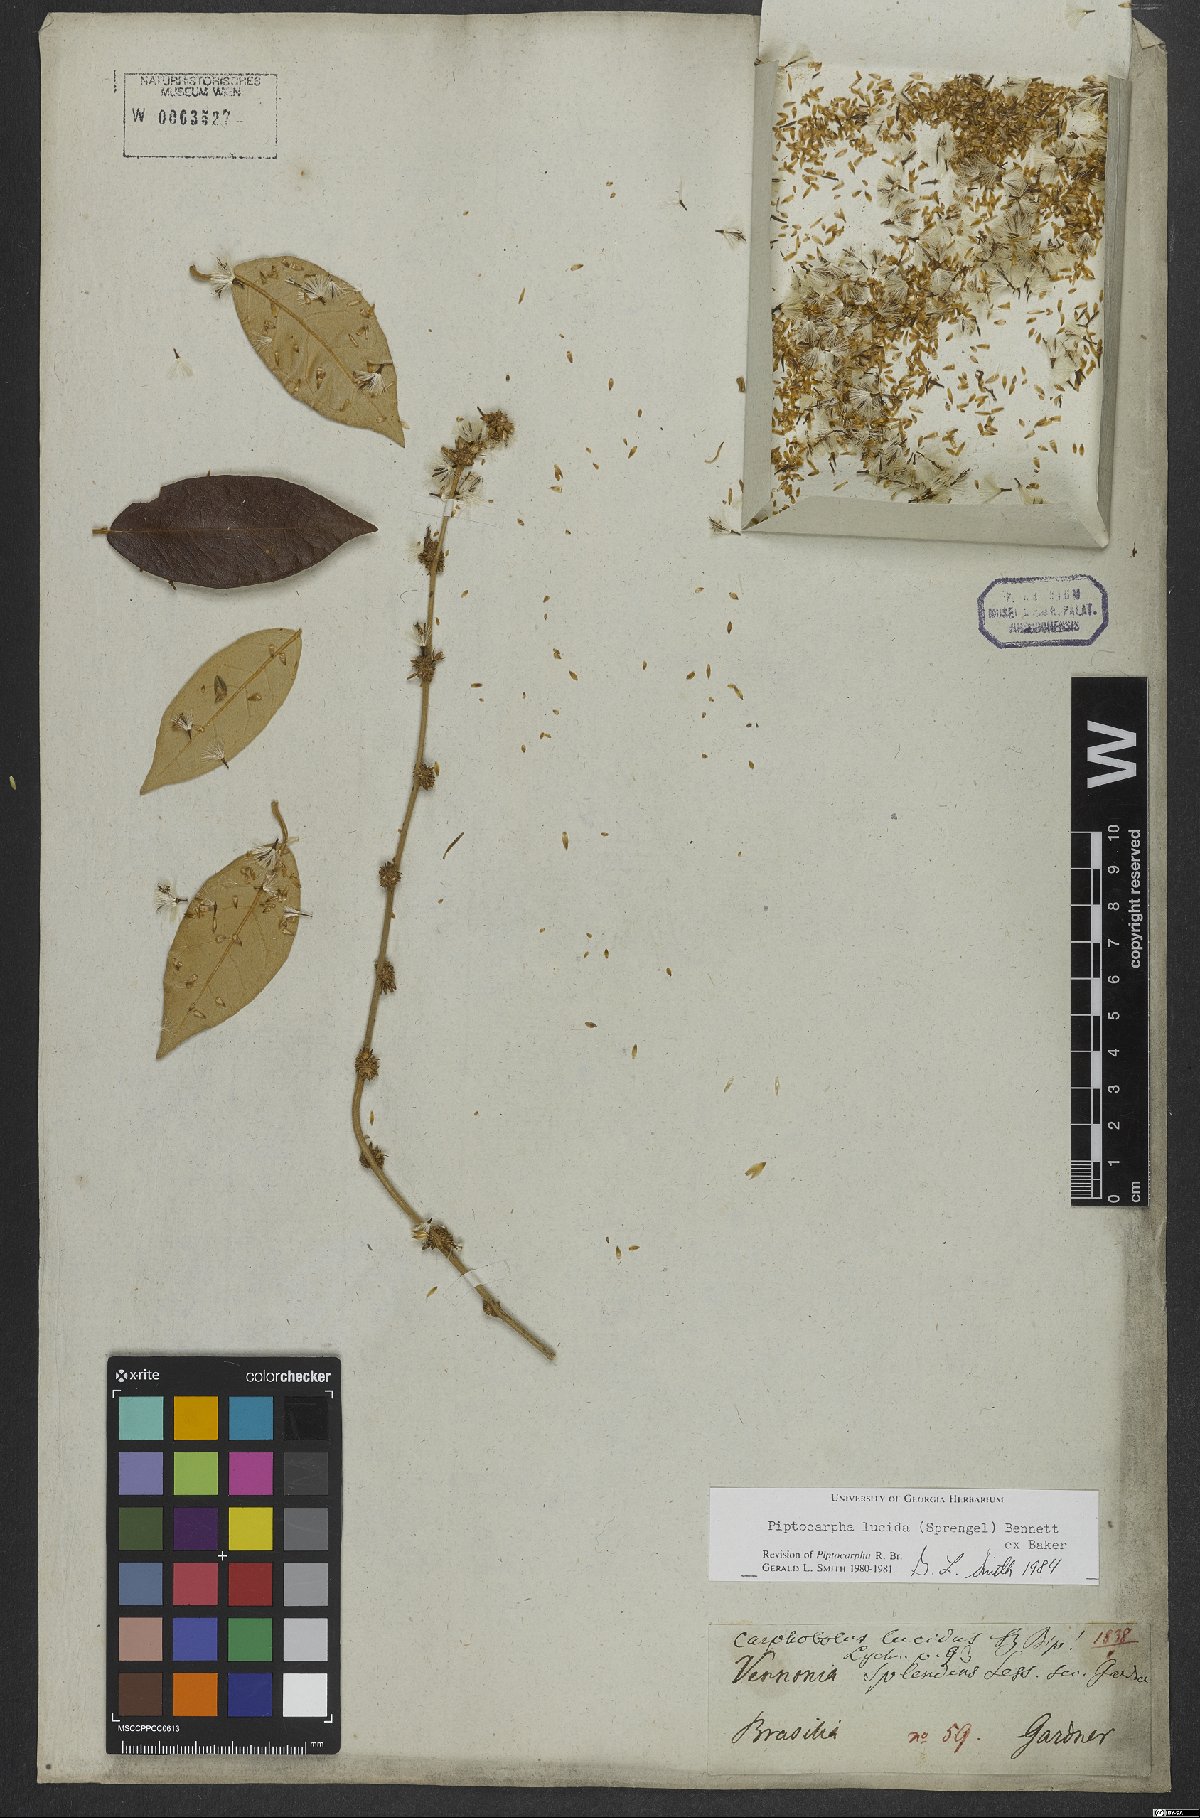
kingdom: Plantae
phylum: Tracheophyta
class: Magnoliopsida
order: Asterales
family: Asteraceae
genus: Piptocarpha
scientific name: Piptocarpha lucida
